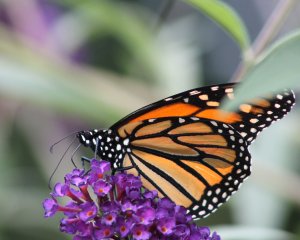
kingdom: Animalia
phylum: Arthropoda
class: Insecta
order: Lepidoptera
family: Nymphalidae
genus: Danaus
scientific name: Danaus plexippus
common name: Monarch
